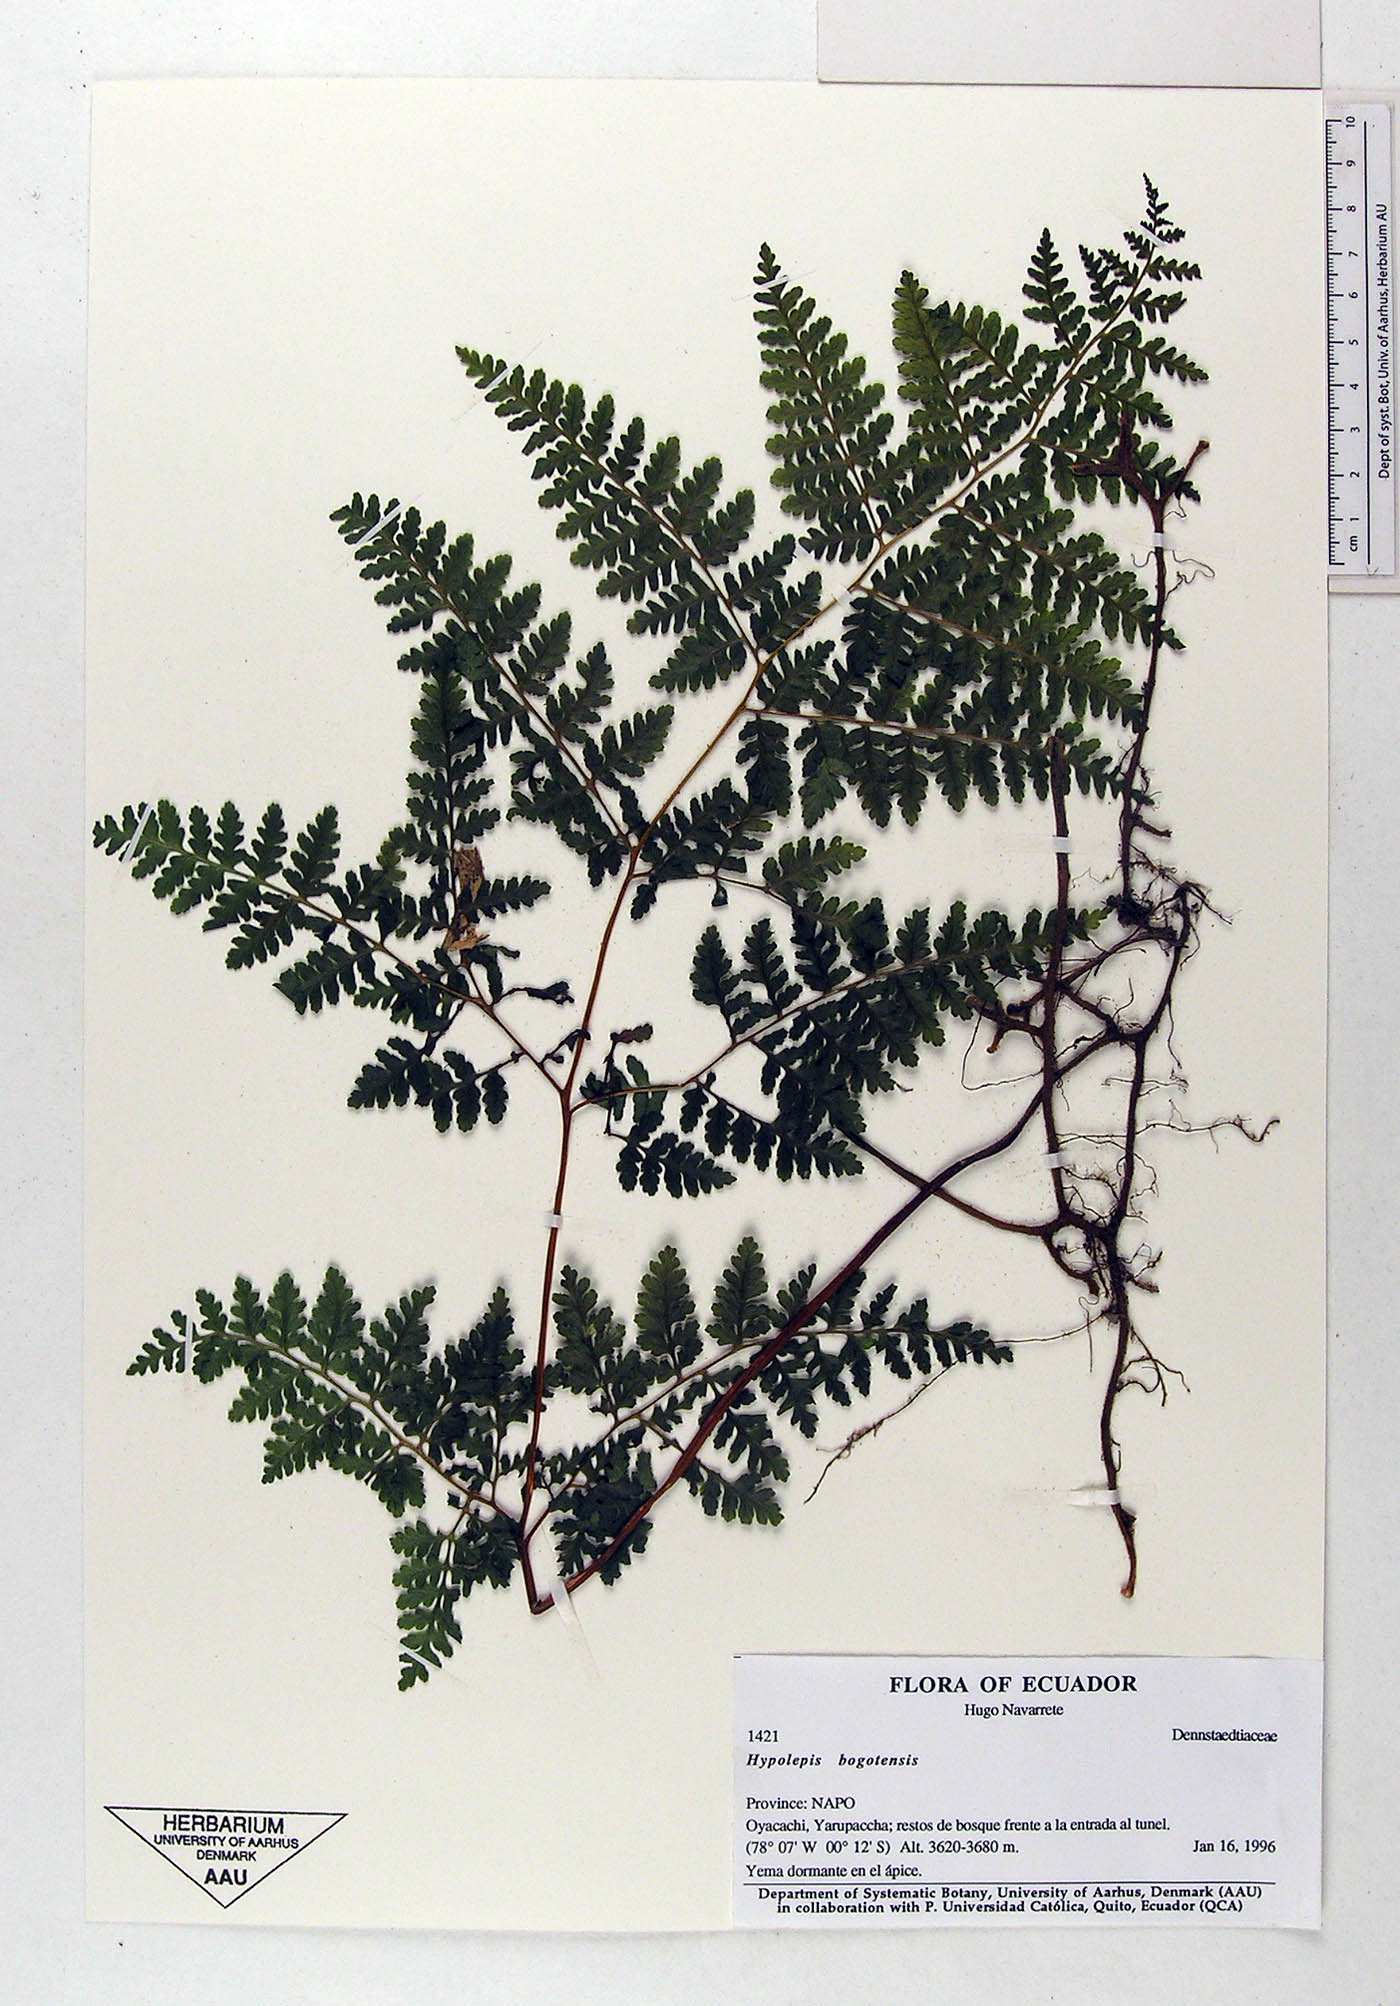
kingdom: Plantae
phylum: Tracheophyta
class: Polypodiopsida
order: Polypodiales
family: Dennstaedtiaceae
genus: Hypolepis
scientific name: Hypolepis bogotensis
